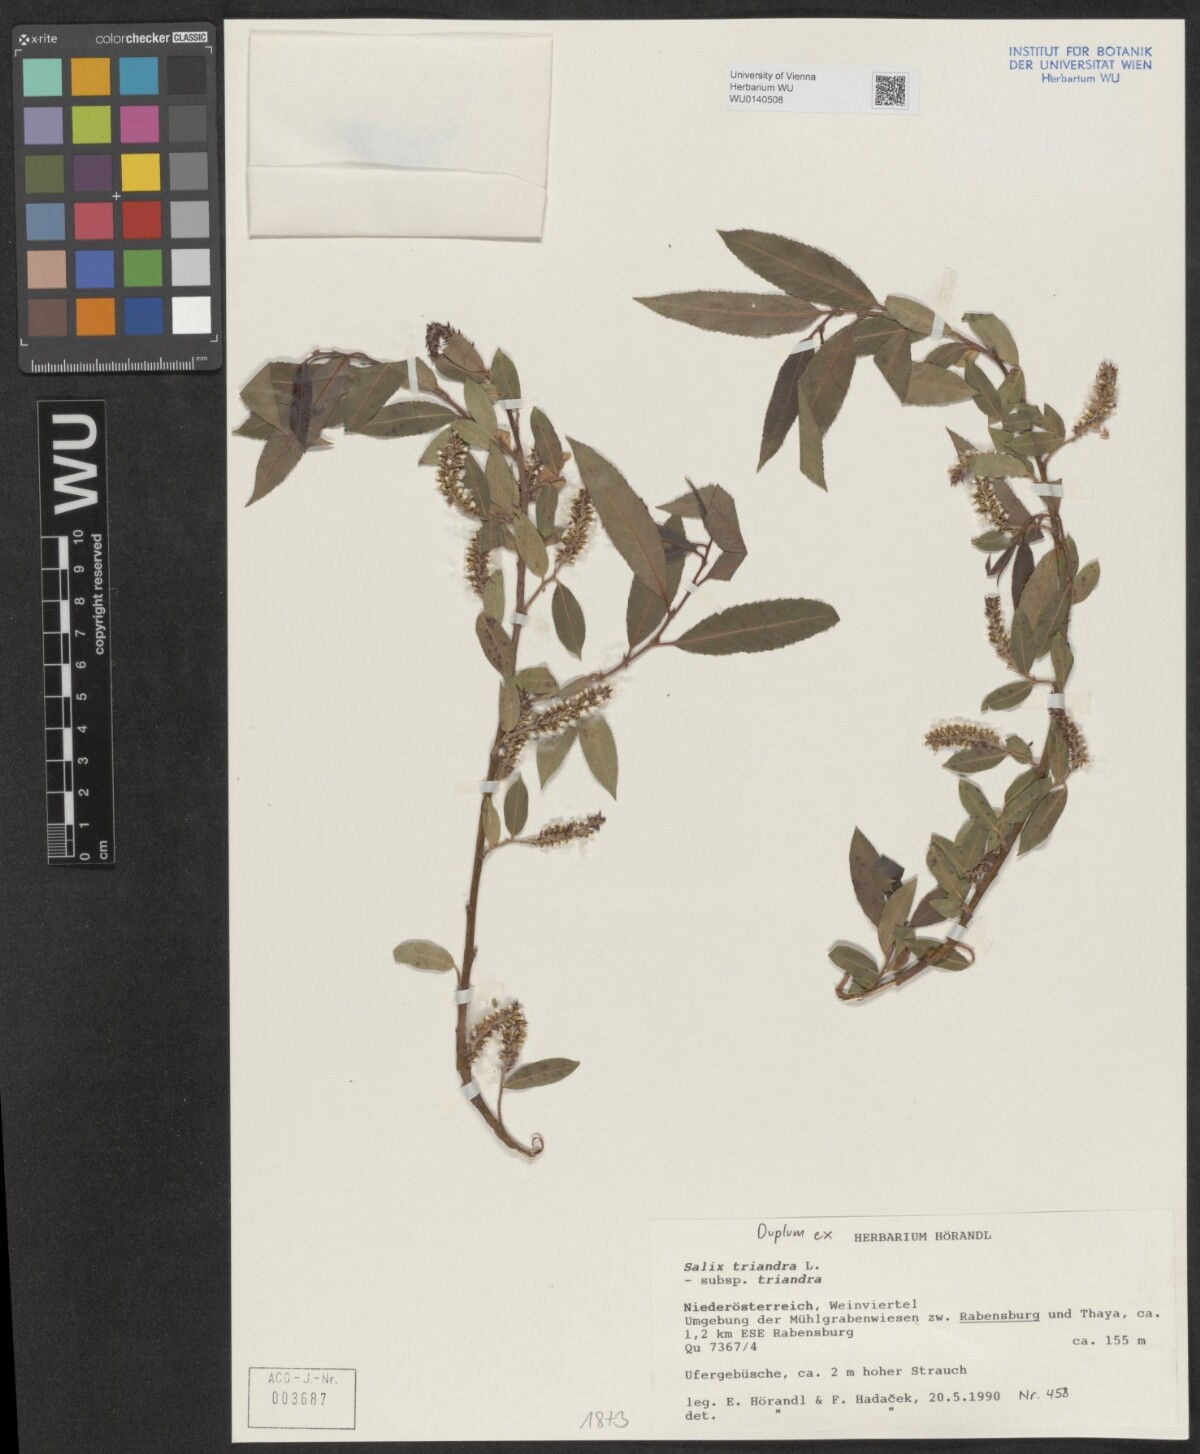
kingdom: Plantae
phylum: Tracheophyta
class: Magnoliopsida
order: Malpighiales
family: Salicaceae
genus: Salix
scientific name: Salix triandra
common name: Almond willow
